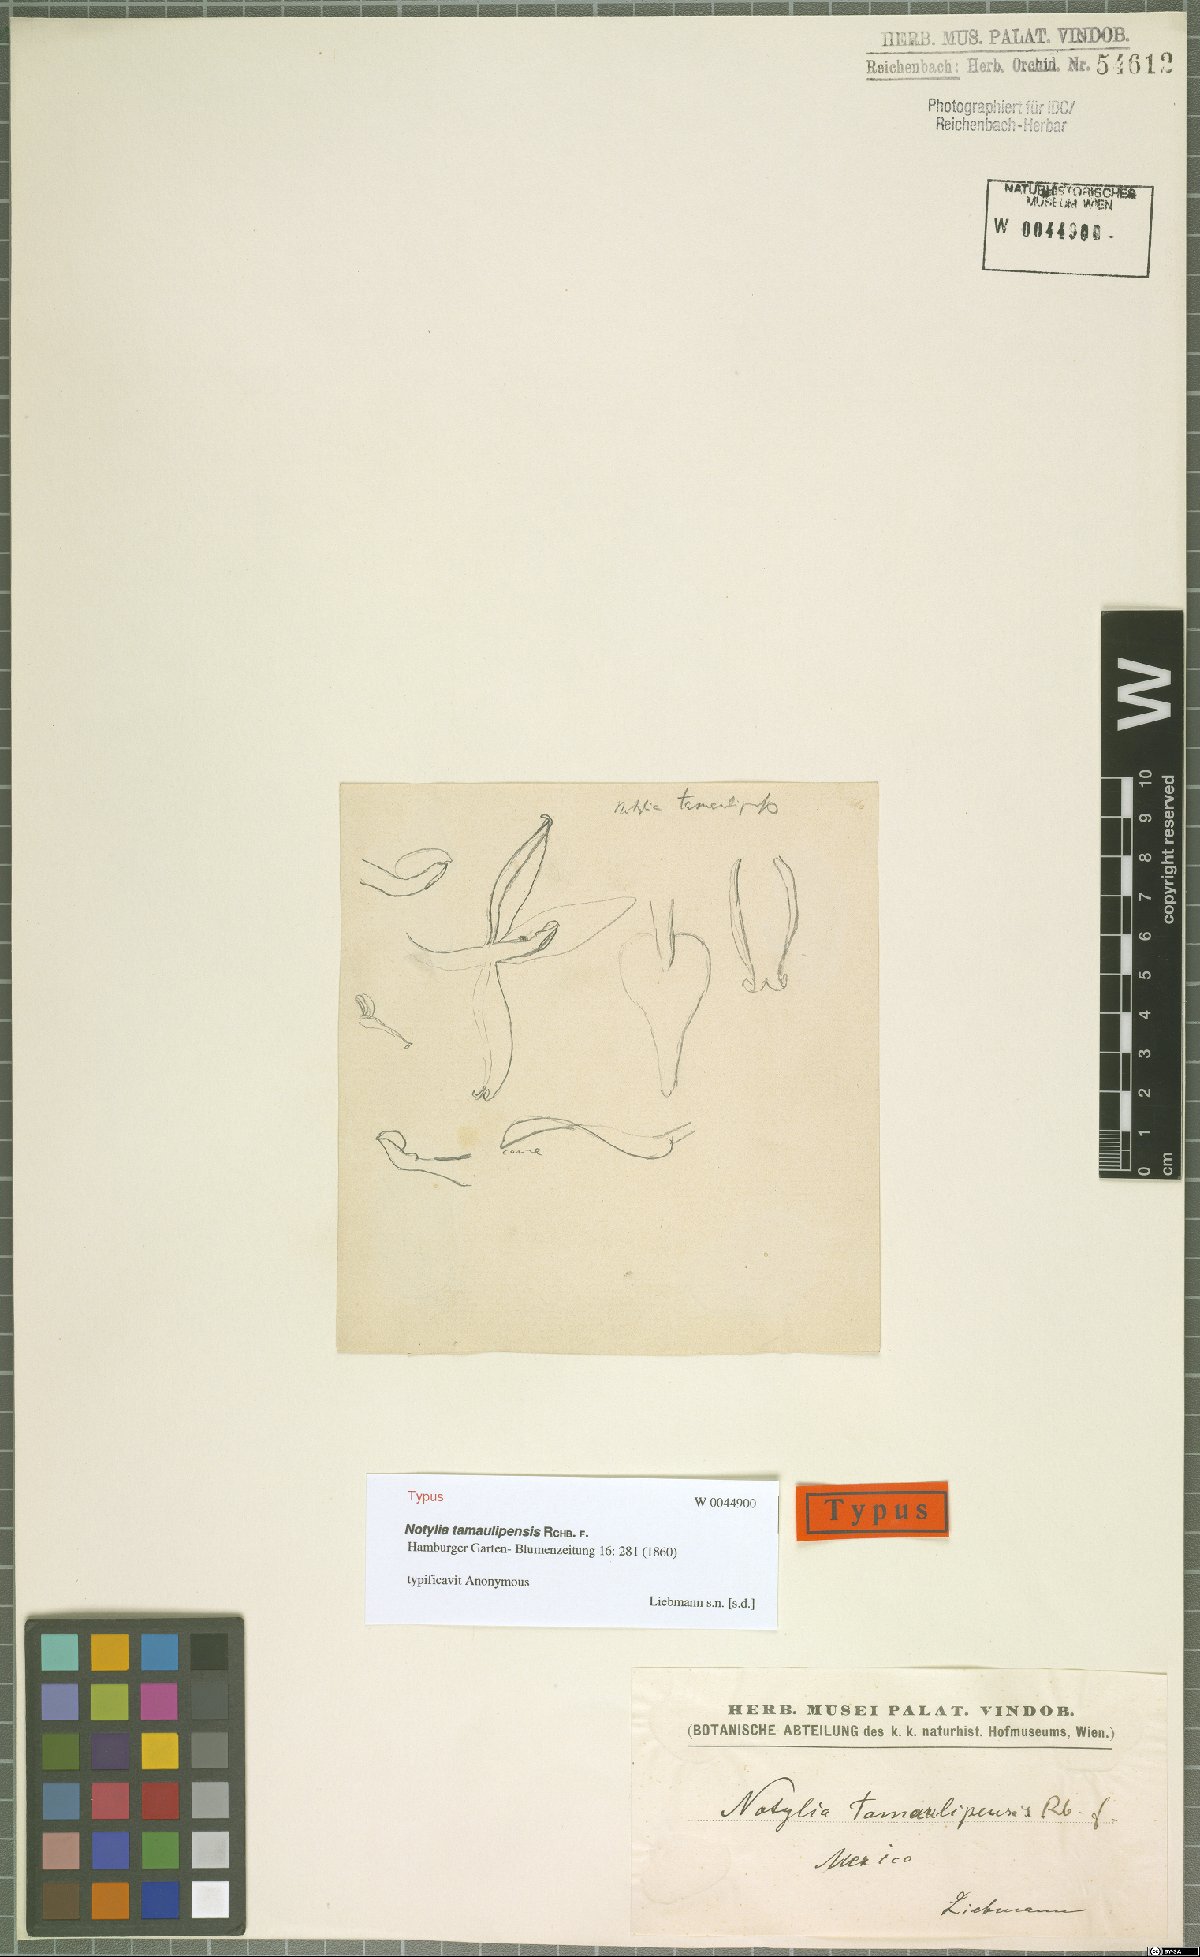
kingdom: Plantae
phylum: Tracheophyta
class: Liliopsida
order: Asparagales
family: Orchidaceae
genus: Notylia
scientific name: Notylia tamaulipensis
